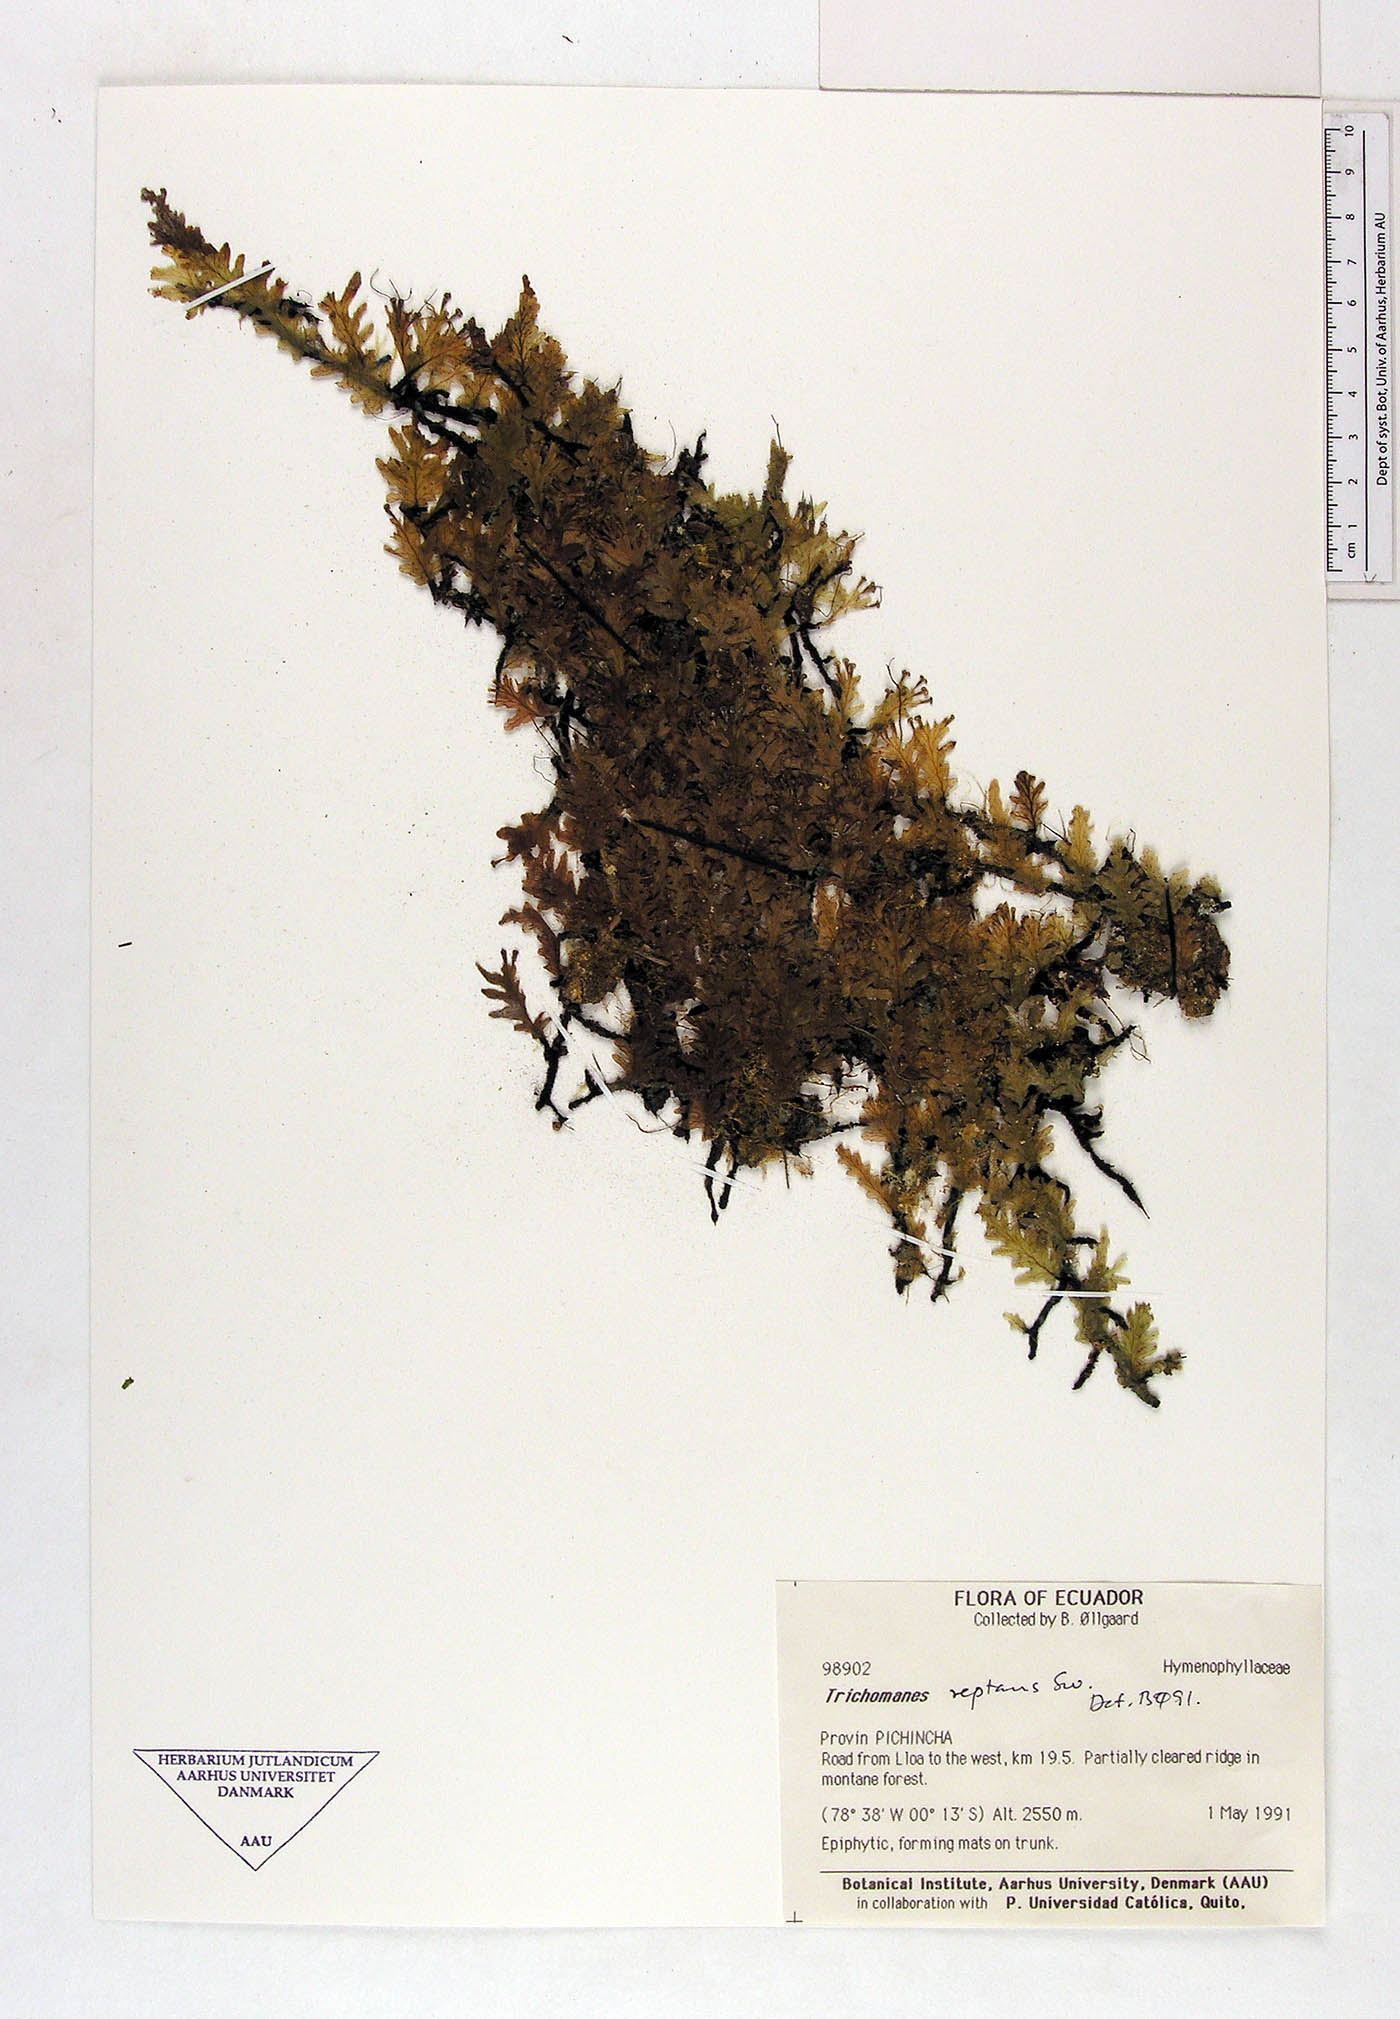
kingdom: Plantae
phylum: Tracheophyta
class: Polypodiopsida
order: Hymenophyllales
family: Hymenophyllaceae
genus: Didymoglossum
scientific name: Didymoglossum reptans
